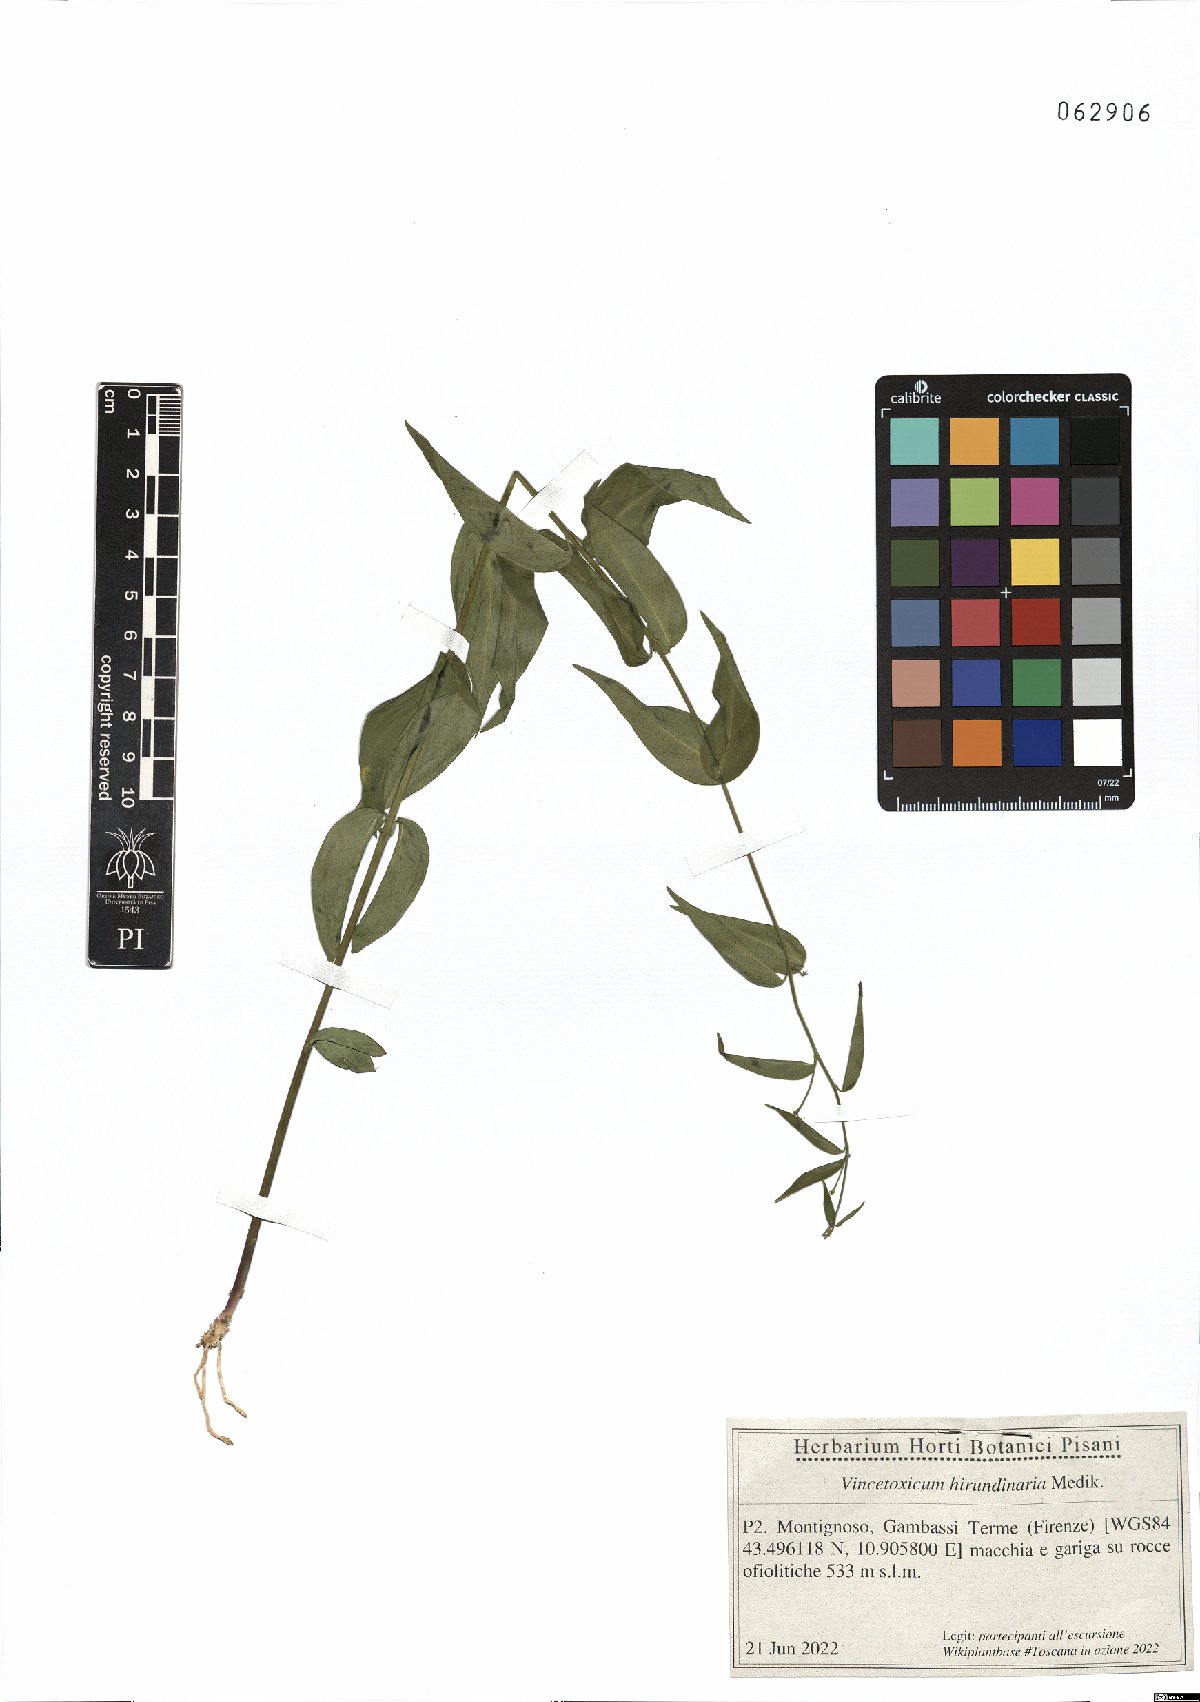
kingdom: Plantae
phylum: Tracheophyta
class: Magnoliopsida
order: Gentianales
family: Apocynaceae
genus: Vincetoxicum
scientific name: Vincetoxicum hirundinaria
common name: White swallowwort
